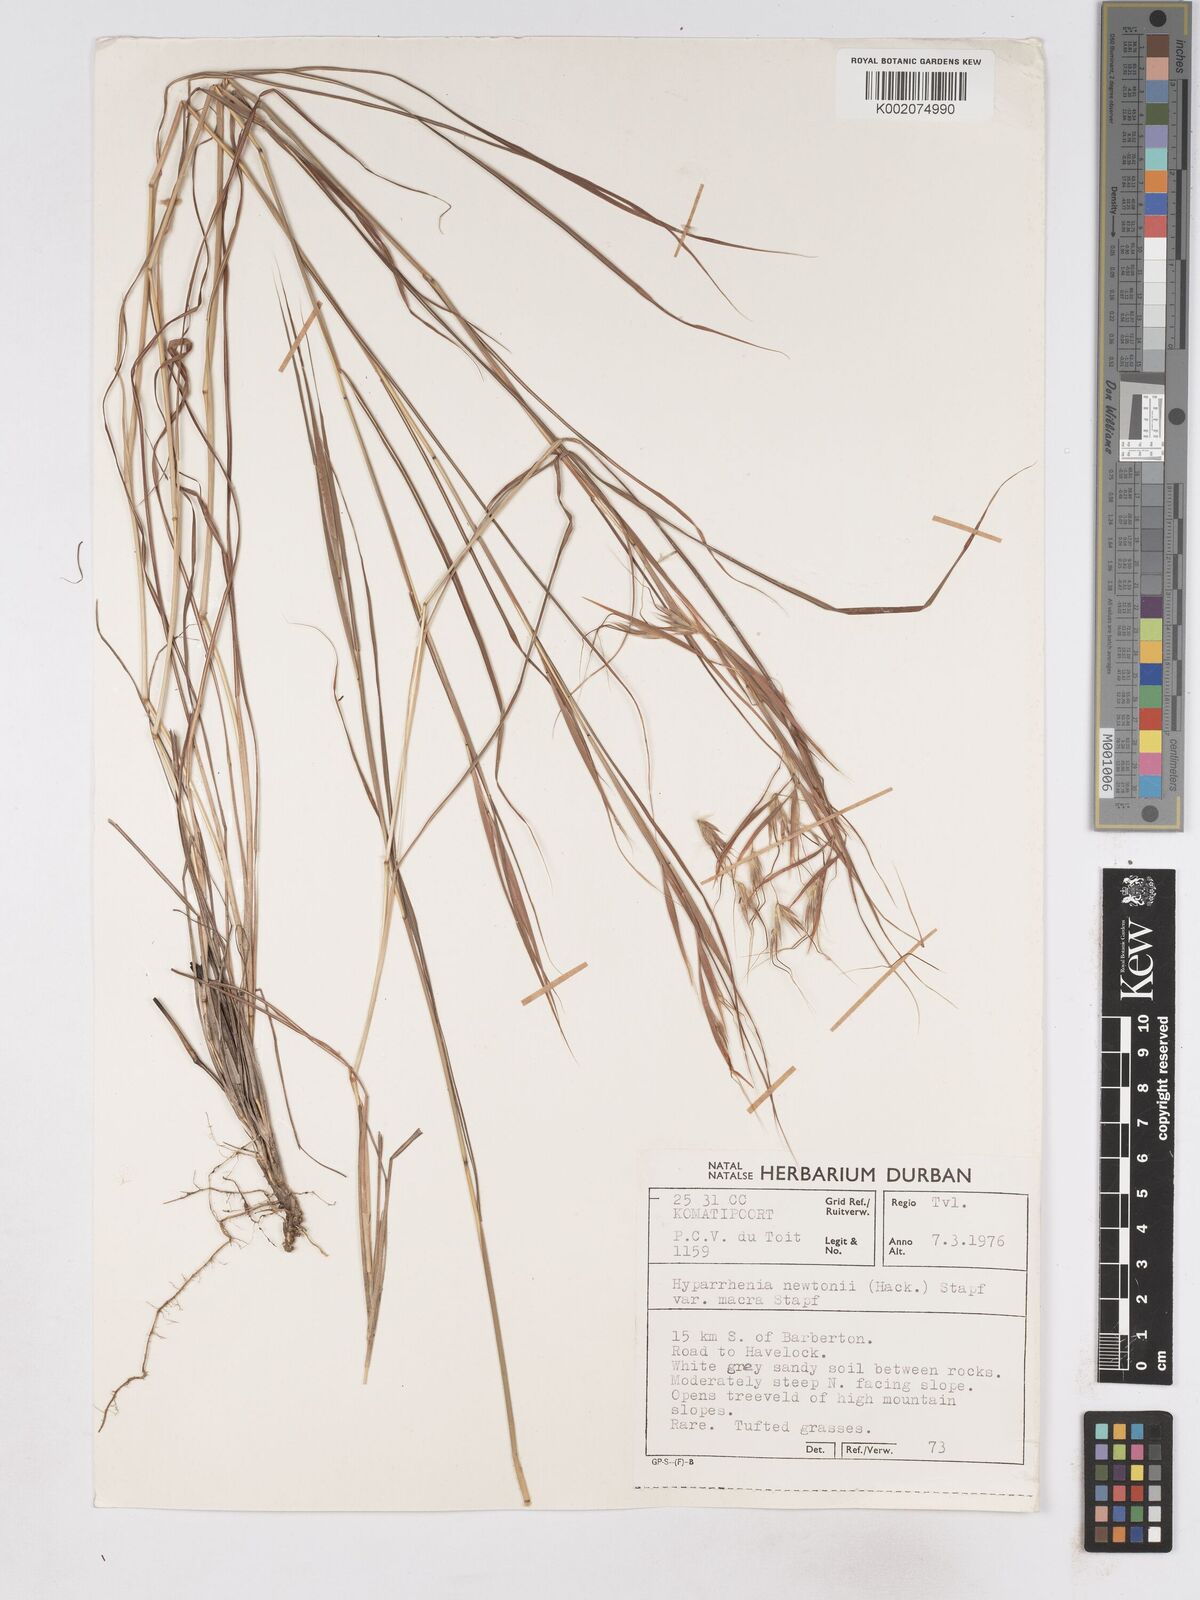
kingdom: Plantae
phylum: Tracheophyta
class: Liliopsida
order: Poales
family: Poaceae
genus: Hyparrhenia
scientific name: Hyparrhenia newtonii
